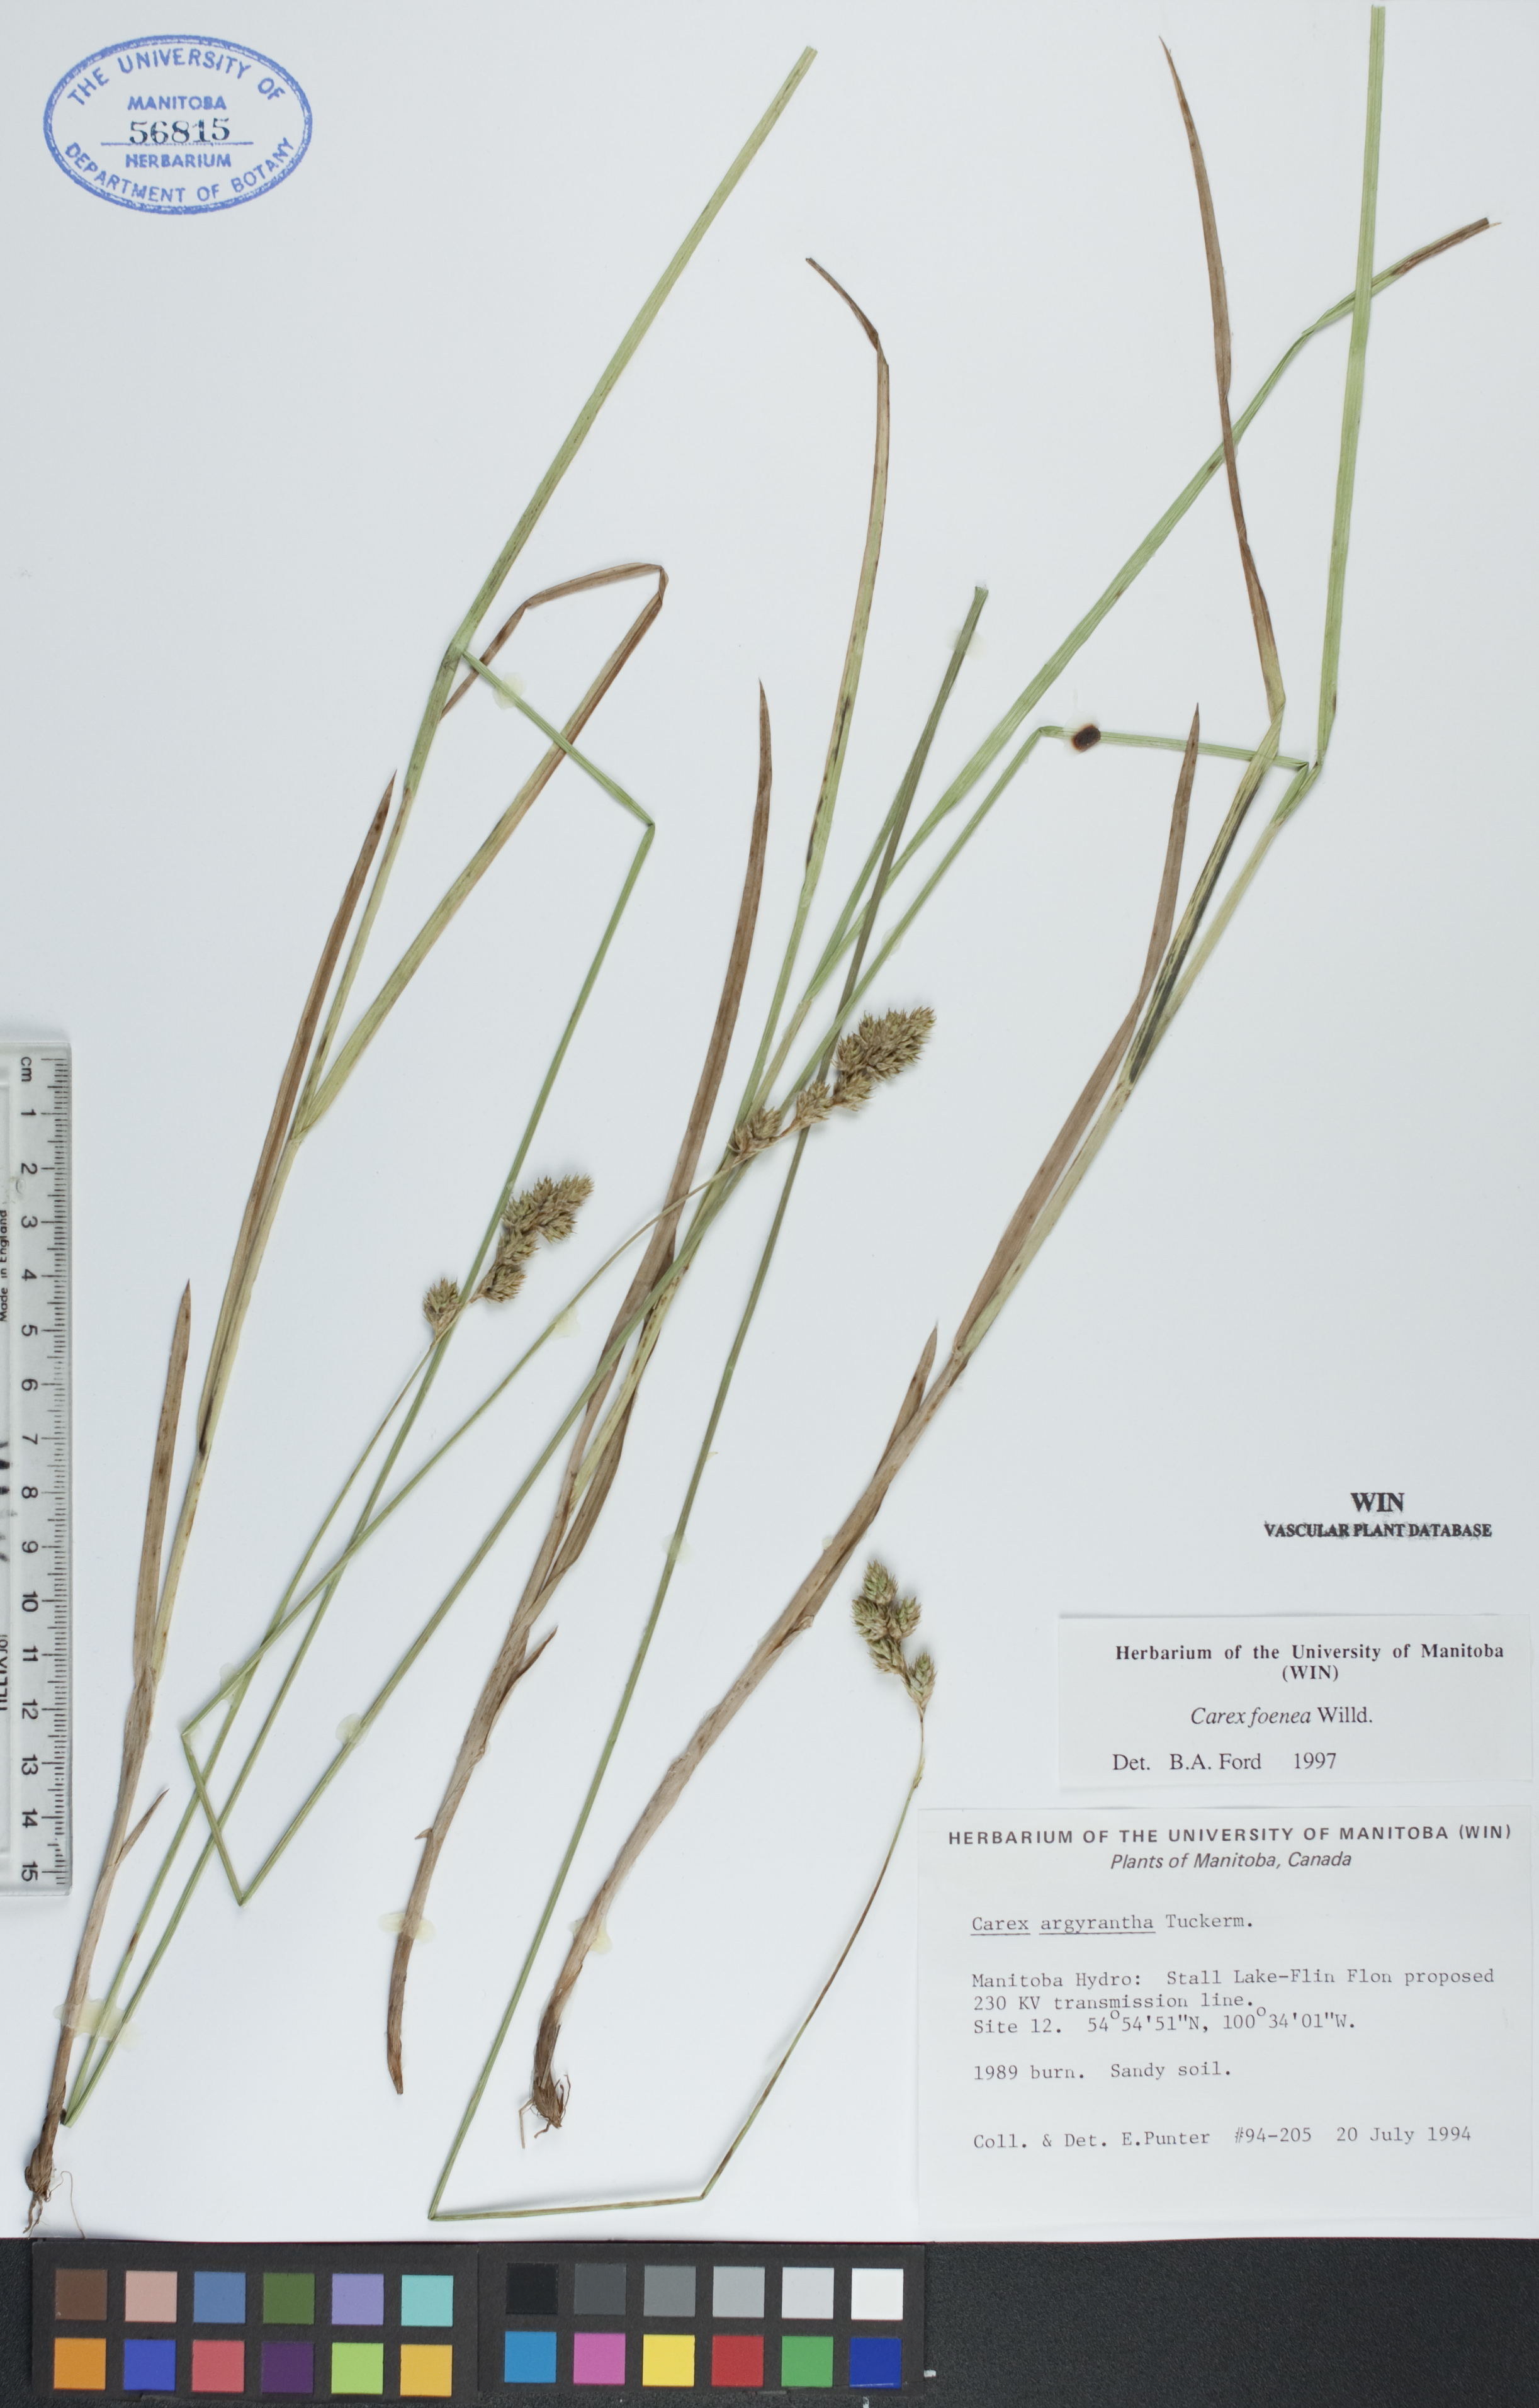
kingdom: Plantae
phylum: Tracheophyta
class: Liliopsida
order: Poales
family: Cyperaceae
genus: Carex
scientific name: Carex foenea
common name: Bronze sedge
